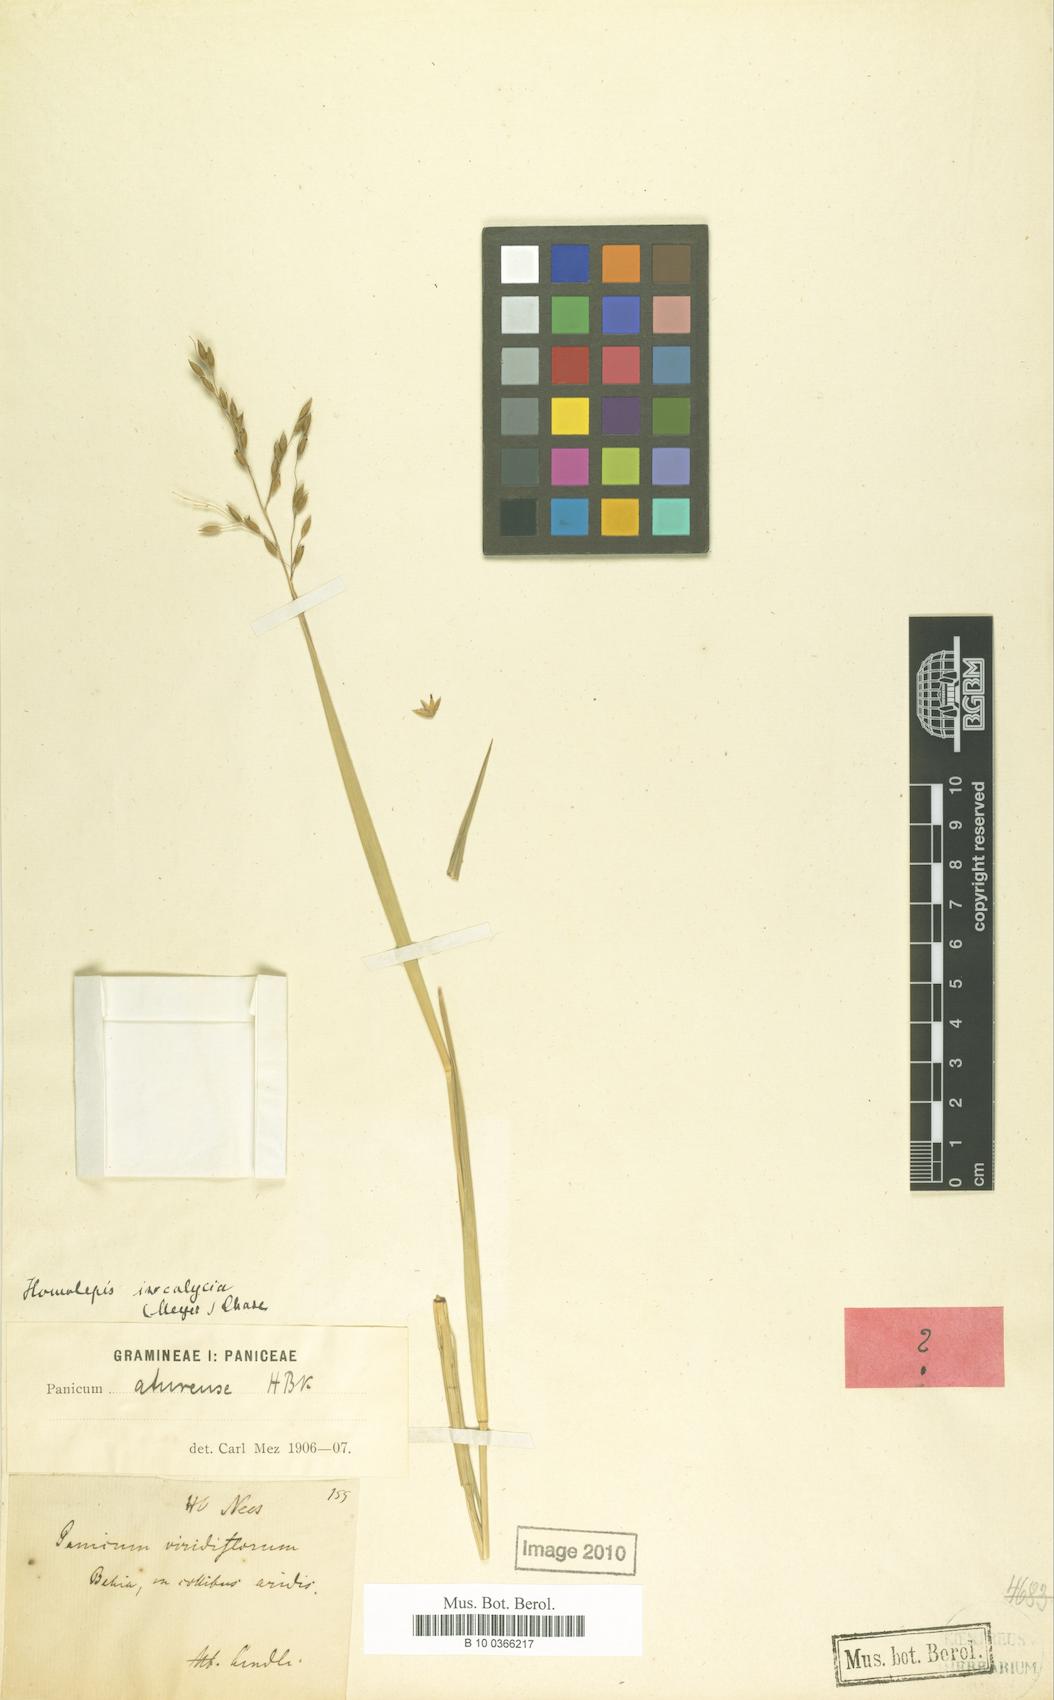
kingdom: Plantae
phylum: Tracheophyta
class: Liliopsida
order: Poales
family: Poaceae
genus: Homolepis
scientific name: Homolepis aturensis
